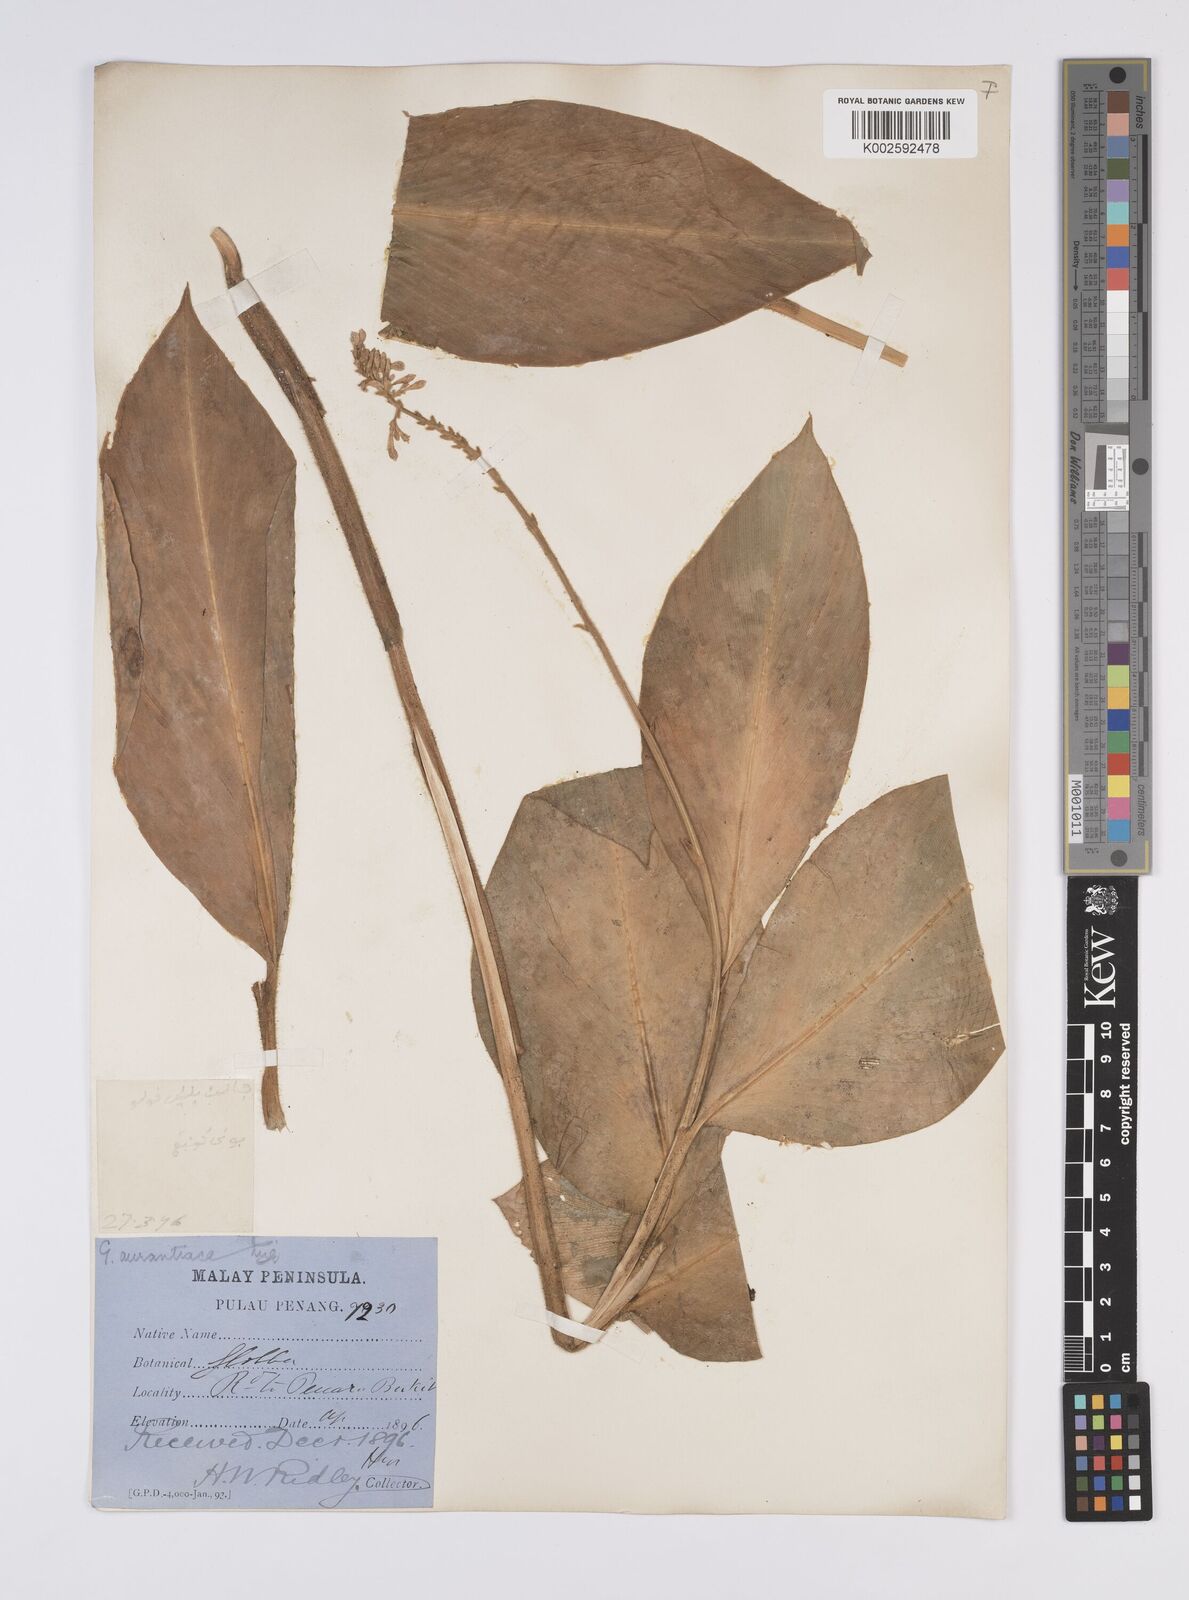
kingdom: Plantae
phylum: Tracheophyta
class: Liliopsida
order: Zingiberales
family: Zingiberaceae
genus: Globba
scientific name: Globba aurantiaca
